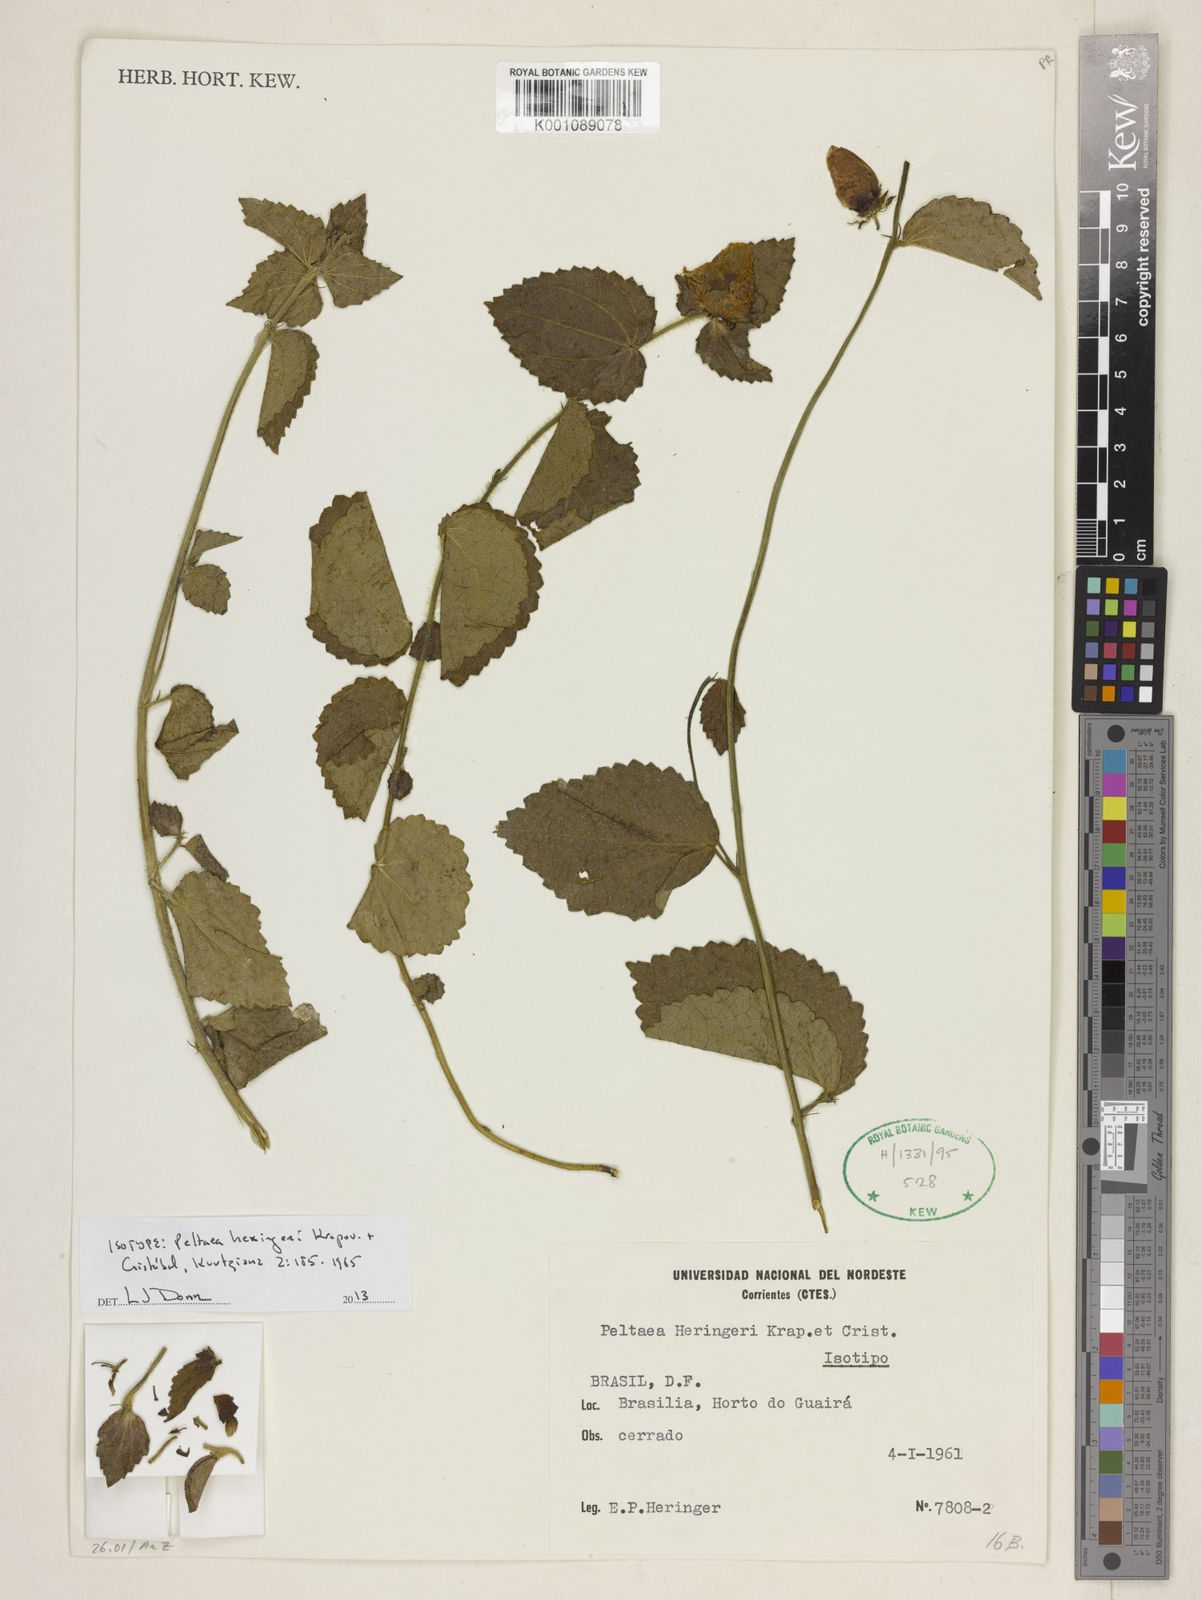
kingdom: Plantae
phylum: Tracheophyta
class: Magnoliopsida
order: Malvales
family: Malvaceae
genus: Peltaea
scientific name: Peltaea heringeri
